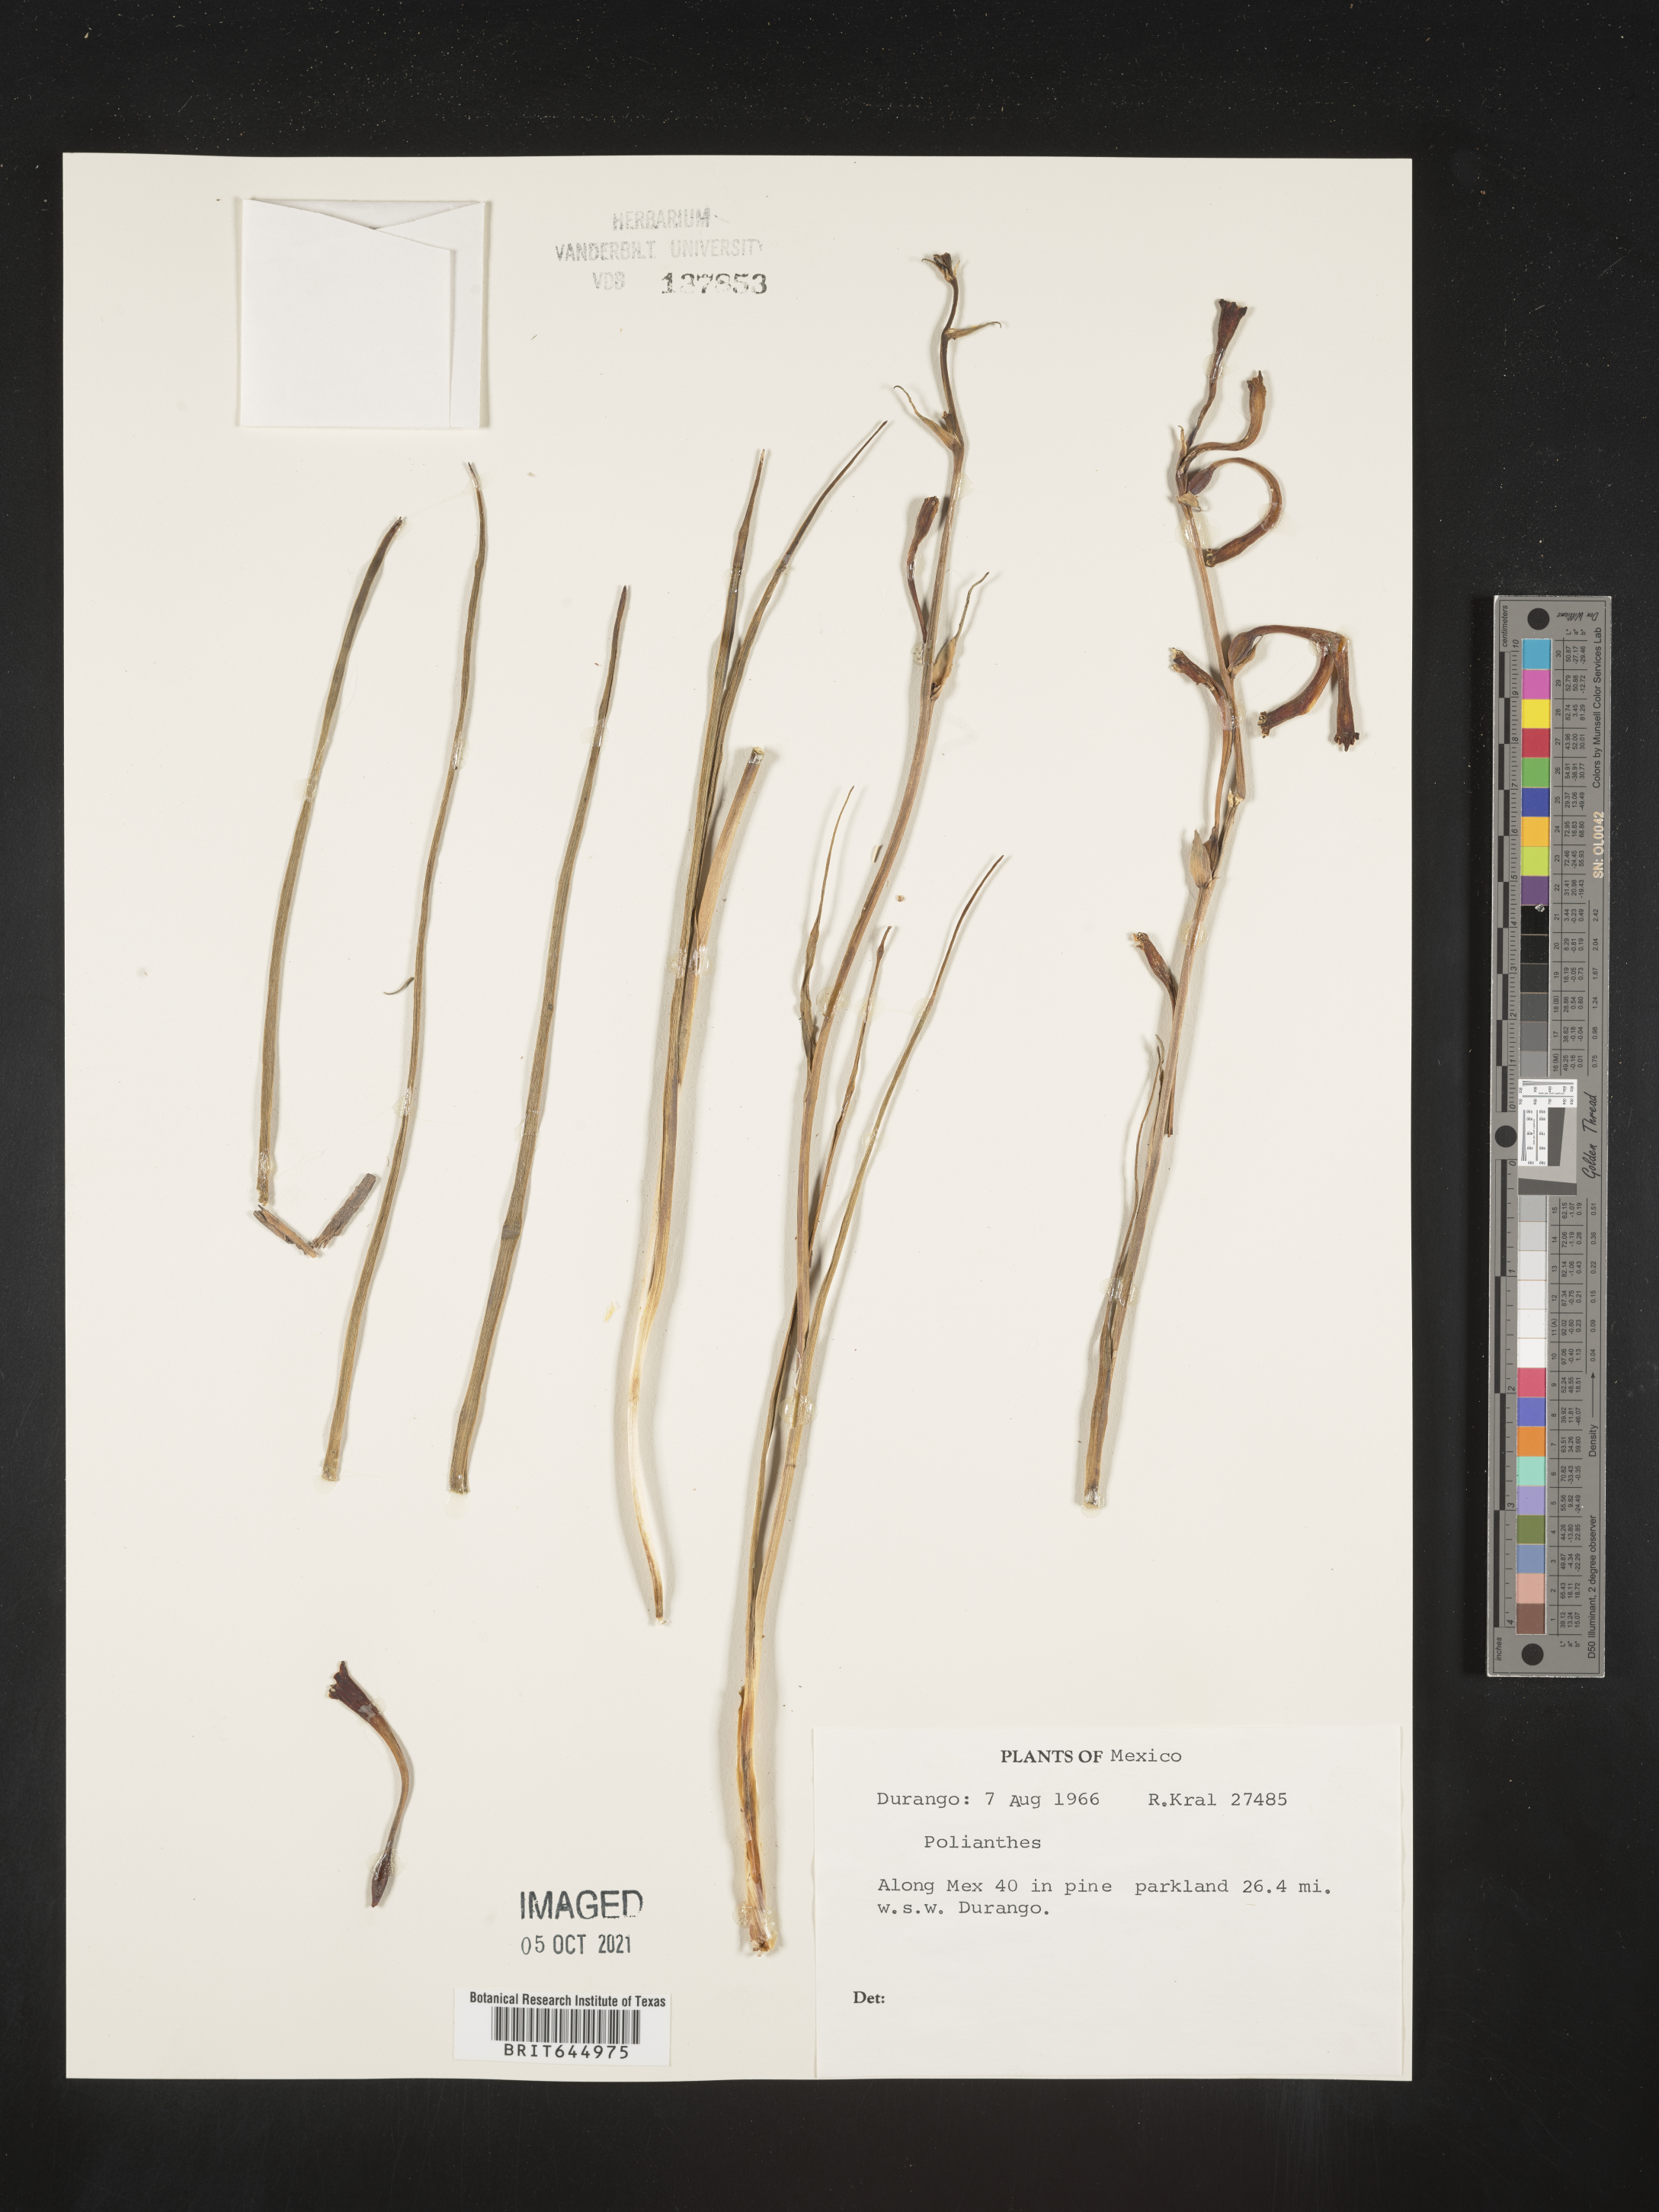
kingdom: Plantae
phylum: Tracheophyta
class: Liliopsida
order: Asparagales
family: Asparagaceae
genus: Agave
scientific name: Agave
